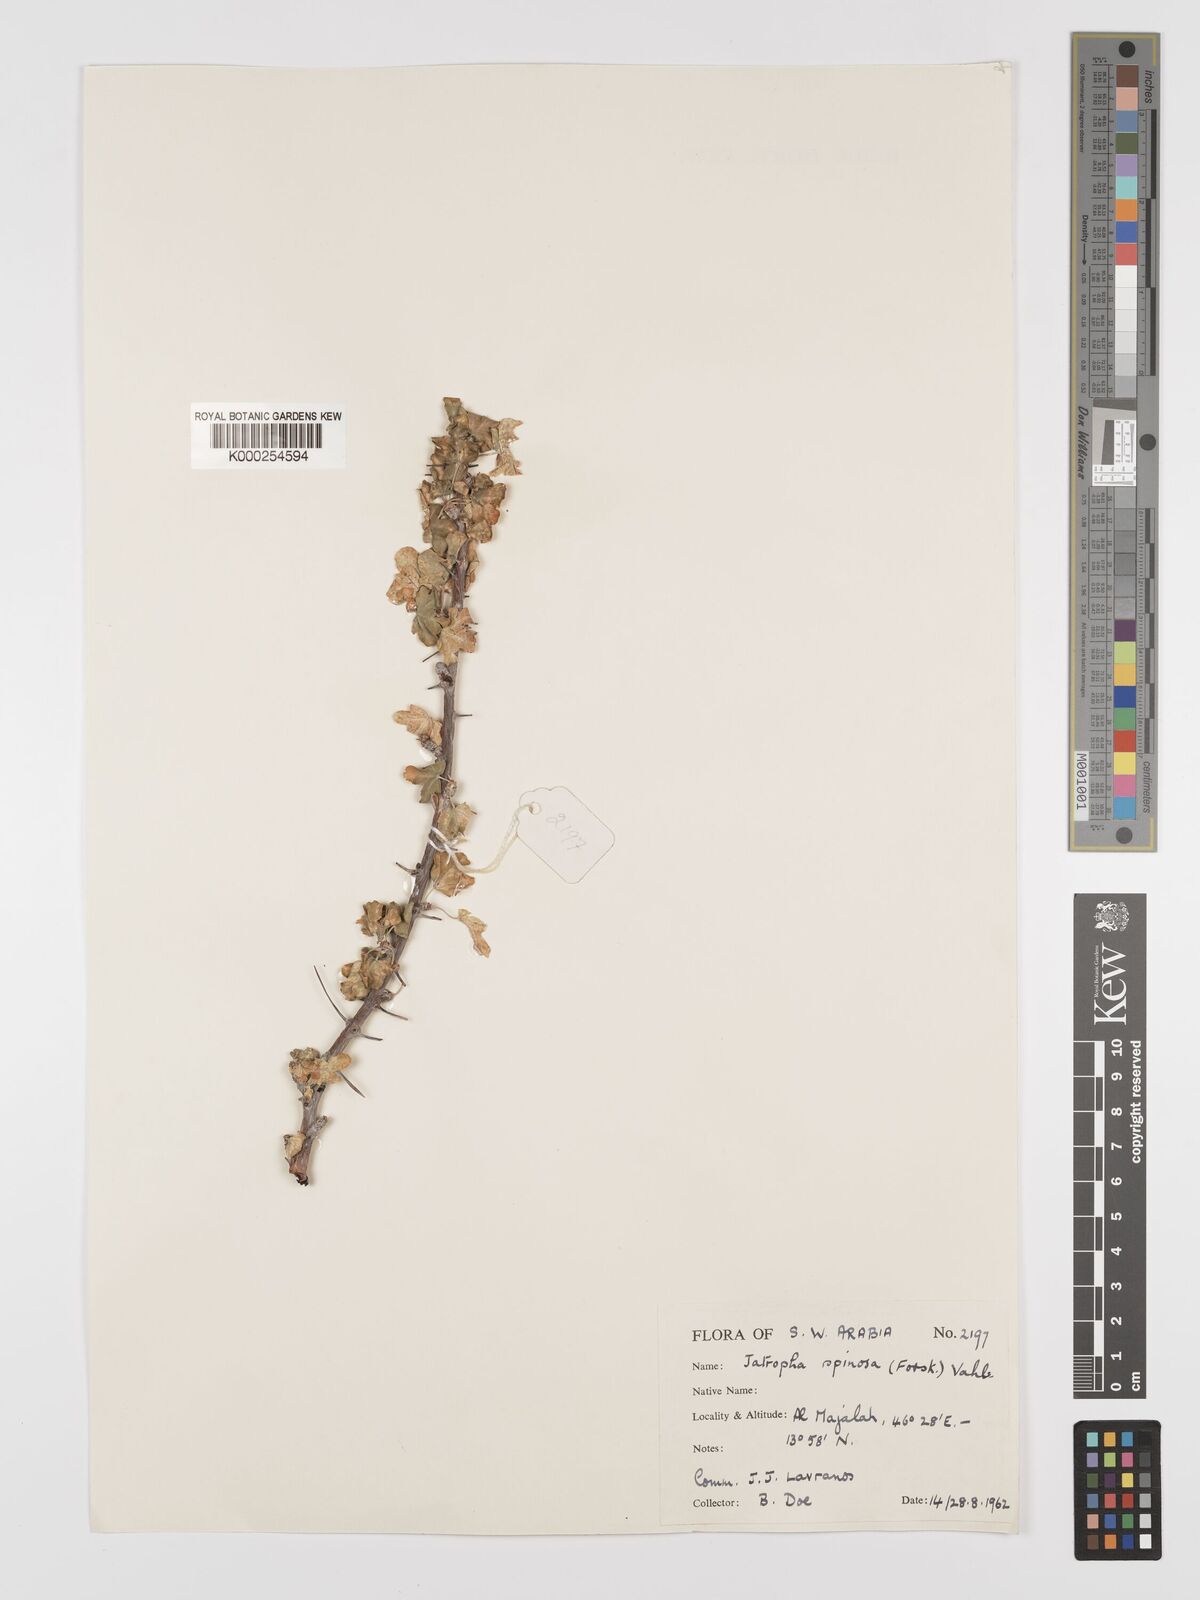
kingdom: Plantae
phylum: Tracheophyta
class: Magnoliopsida
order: Malpighiales
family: Euphorbiaceae
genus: Jatropha
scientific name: Jatropha spinosa
